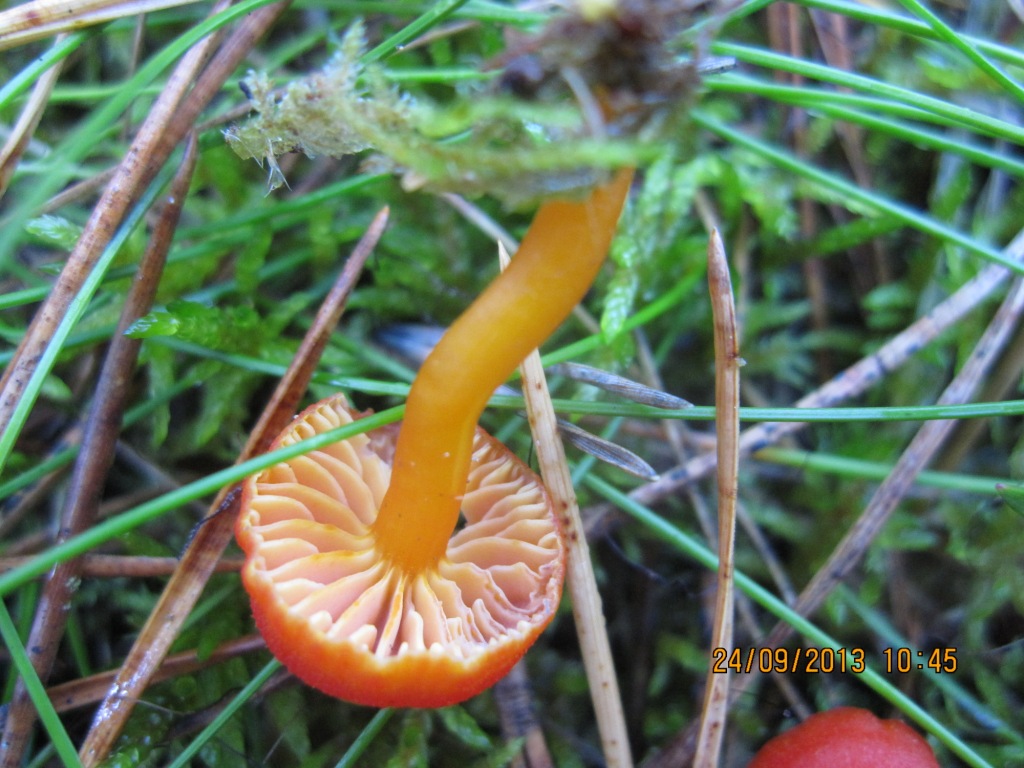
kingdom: Fungi
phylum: Basidiomycota
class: Agaricomycetes
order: Agaricales
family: Hygrophoraceae
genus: Hygrocybe
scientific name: Hygrocybe miniata
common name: mønje-vokshat
